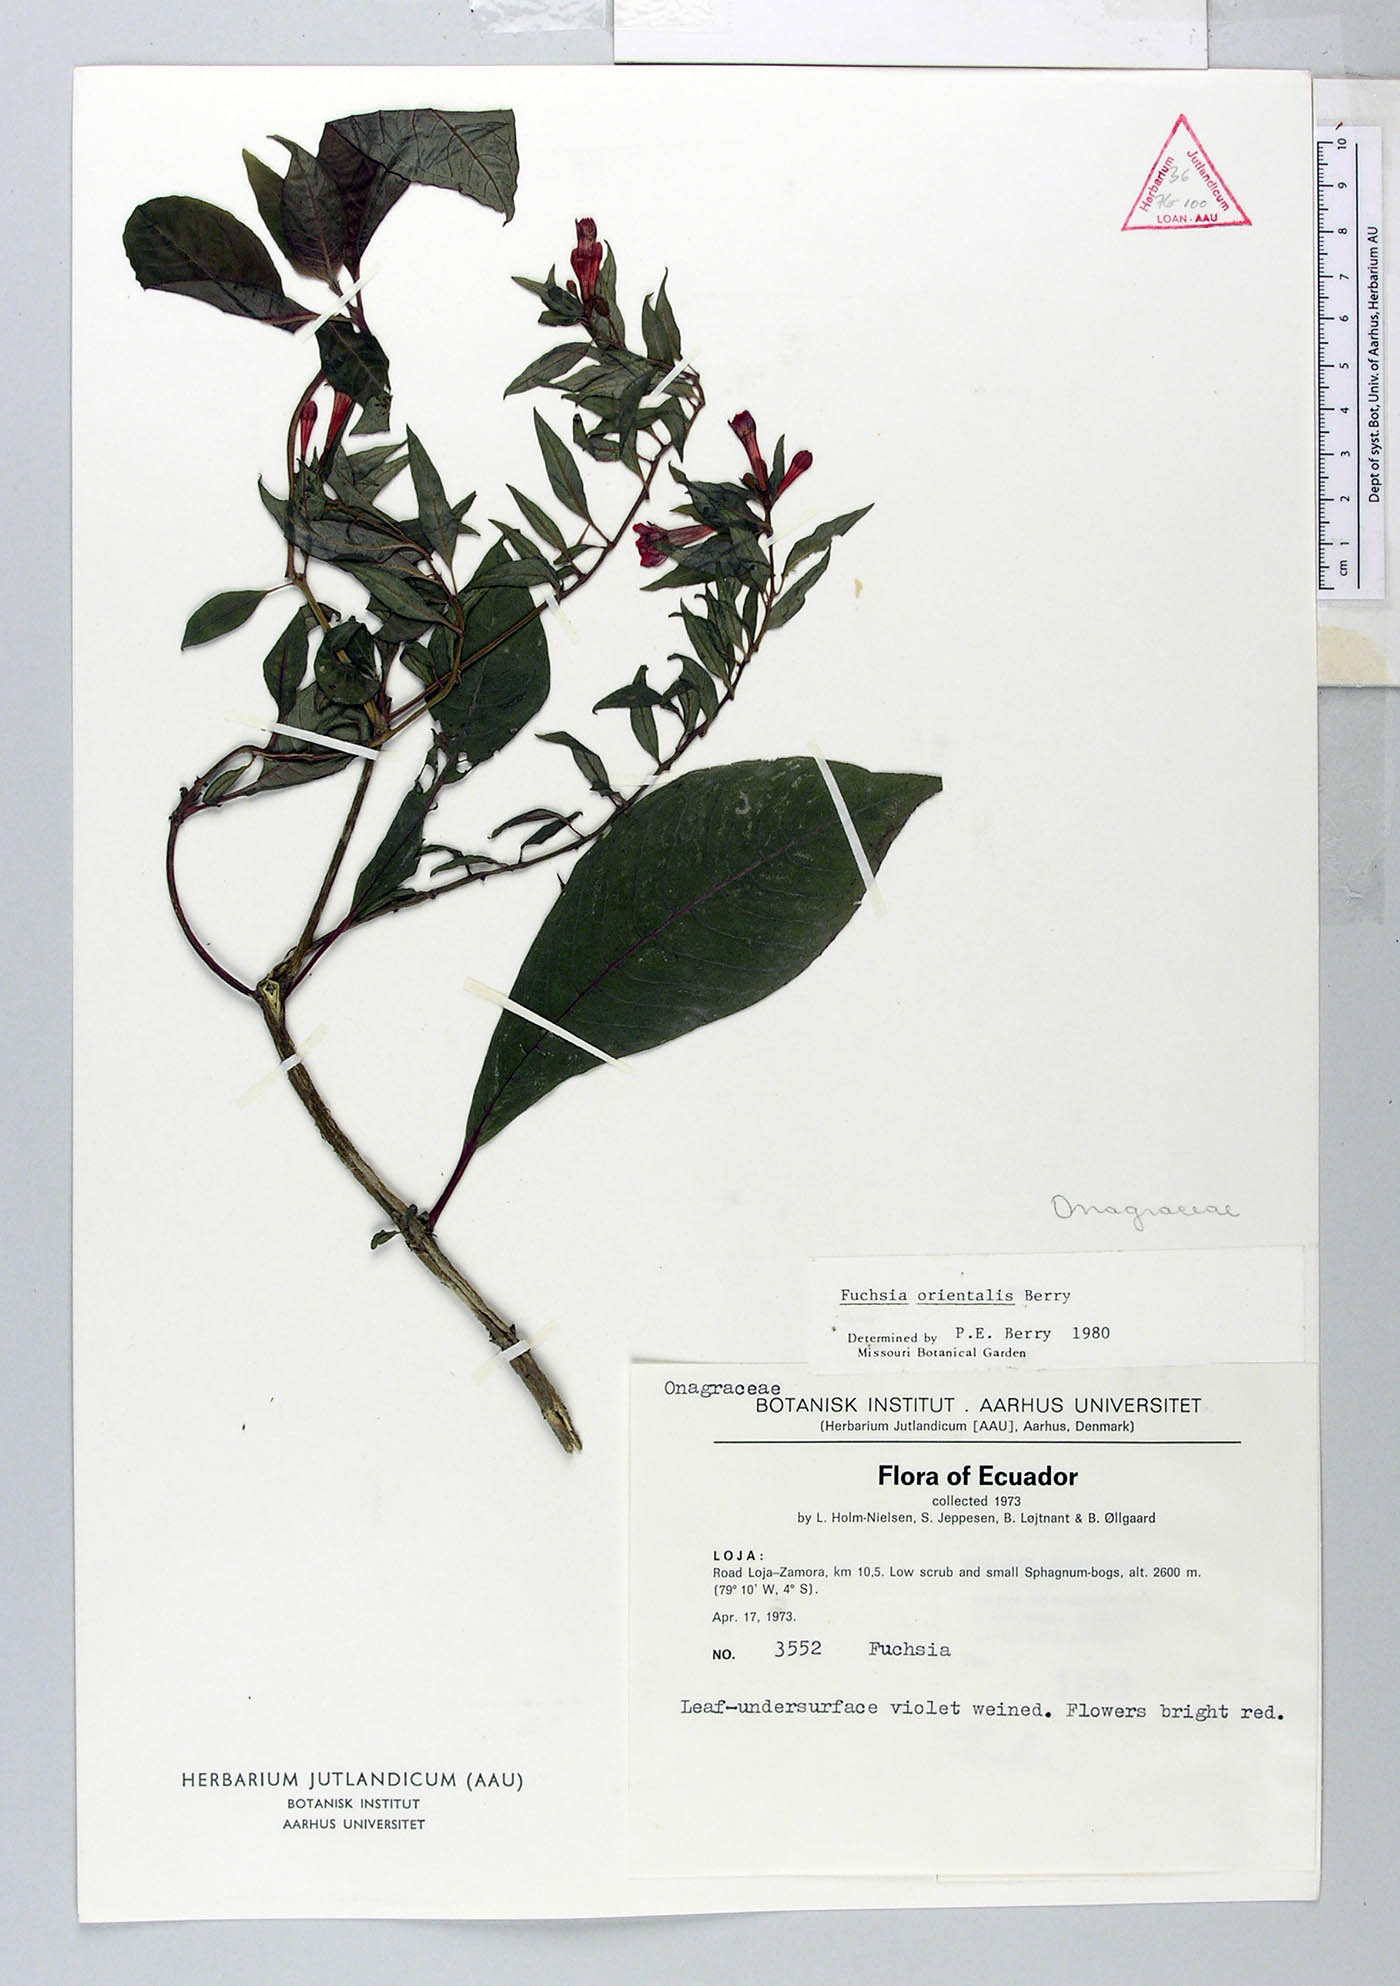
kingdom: Plantae
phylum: Tracheophyta
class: Magnoliopsida
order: Myrtales
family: Onagraceae
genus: Fuchsia
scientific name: Fuchsia orientalis
